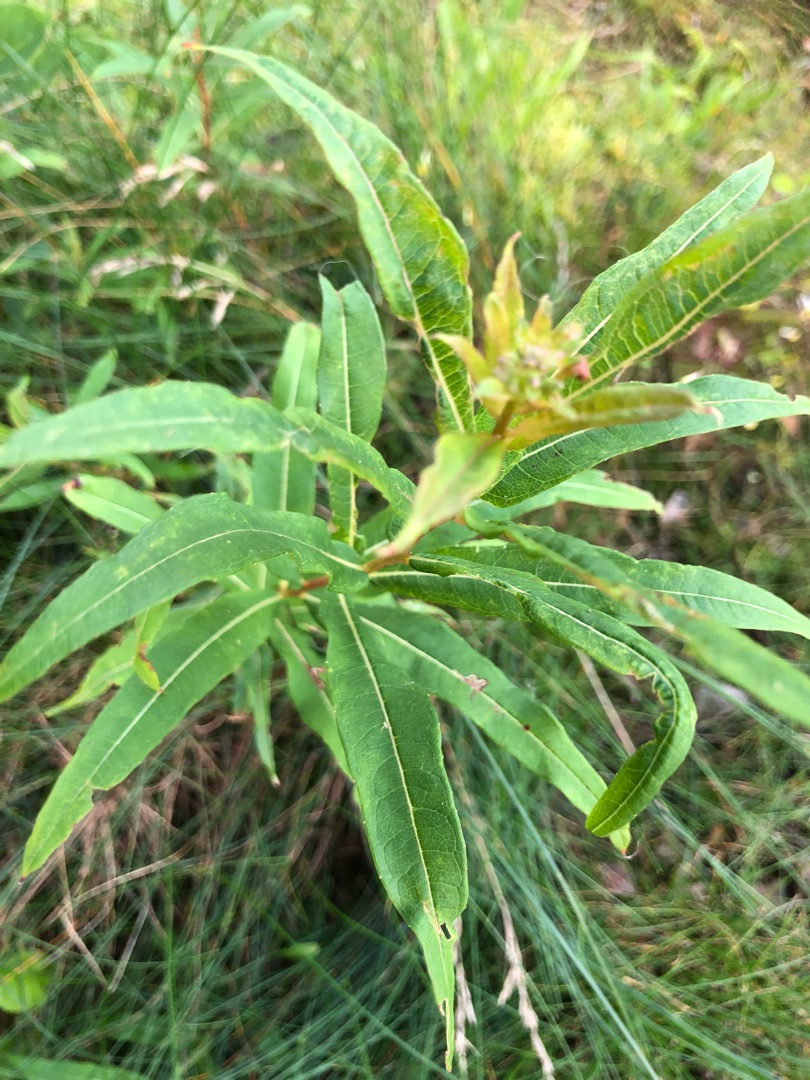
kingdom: Plantae
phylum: Tracheophyta
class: Magnoliopsida
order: Myrtales
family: Onagraceae
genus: Chamaenerion
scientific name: Chamaenerion angustifolium
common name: Gederams
